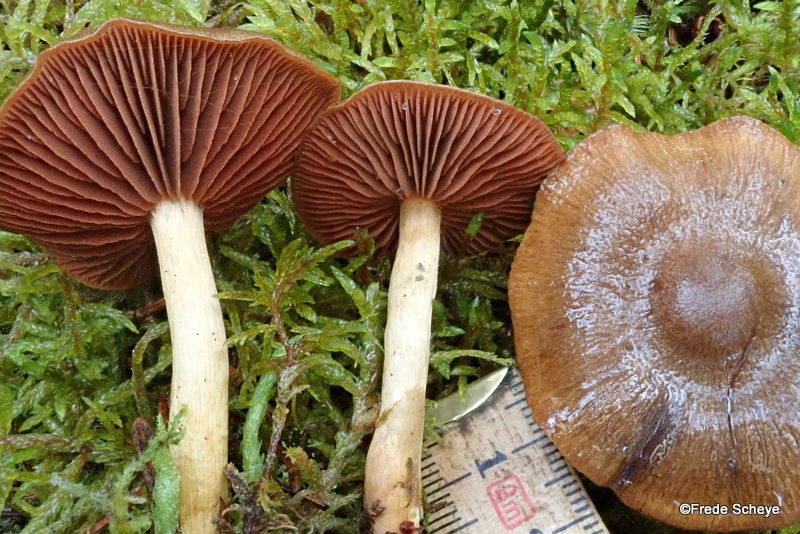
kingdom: Fungi
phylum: Basidiomycota
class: Agaricomycetes
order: Agaricales
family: Cortinariaceae
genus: Cortinarius
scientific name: Cortinarius
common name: cinnoberbladet slørhat
